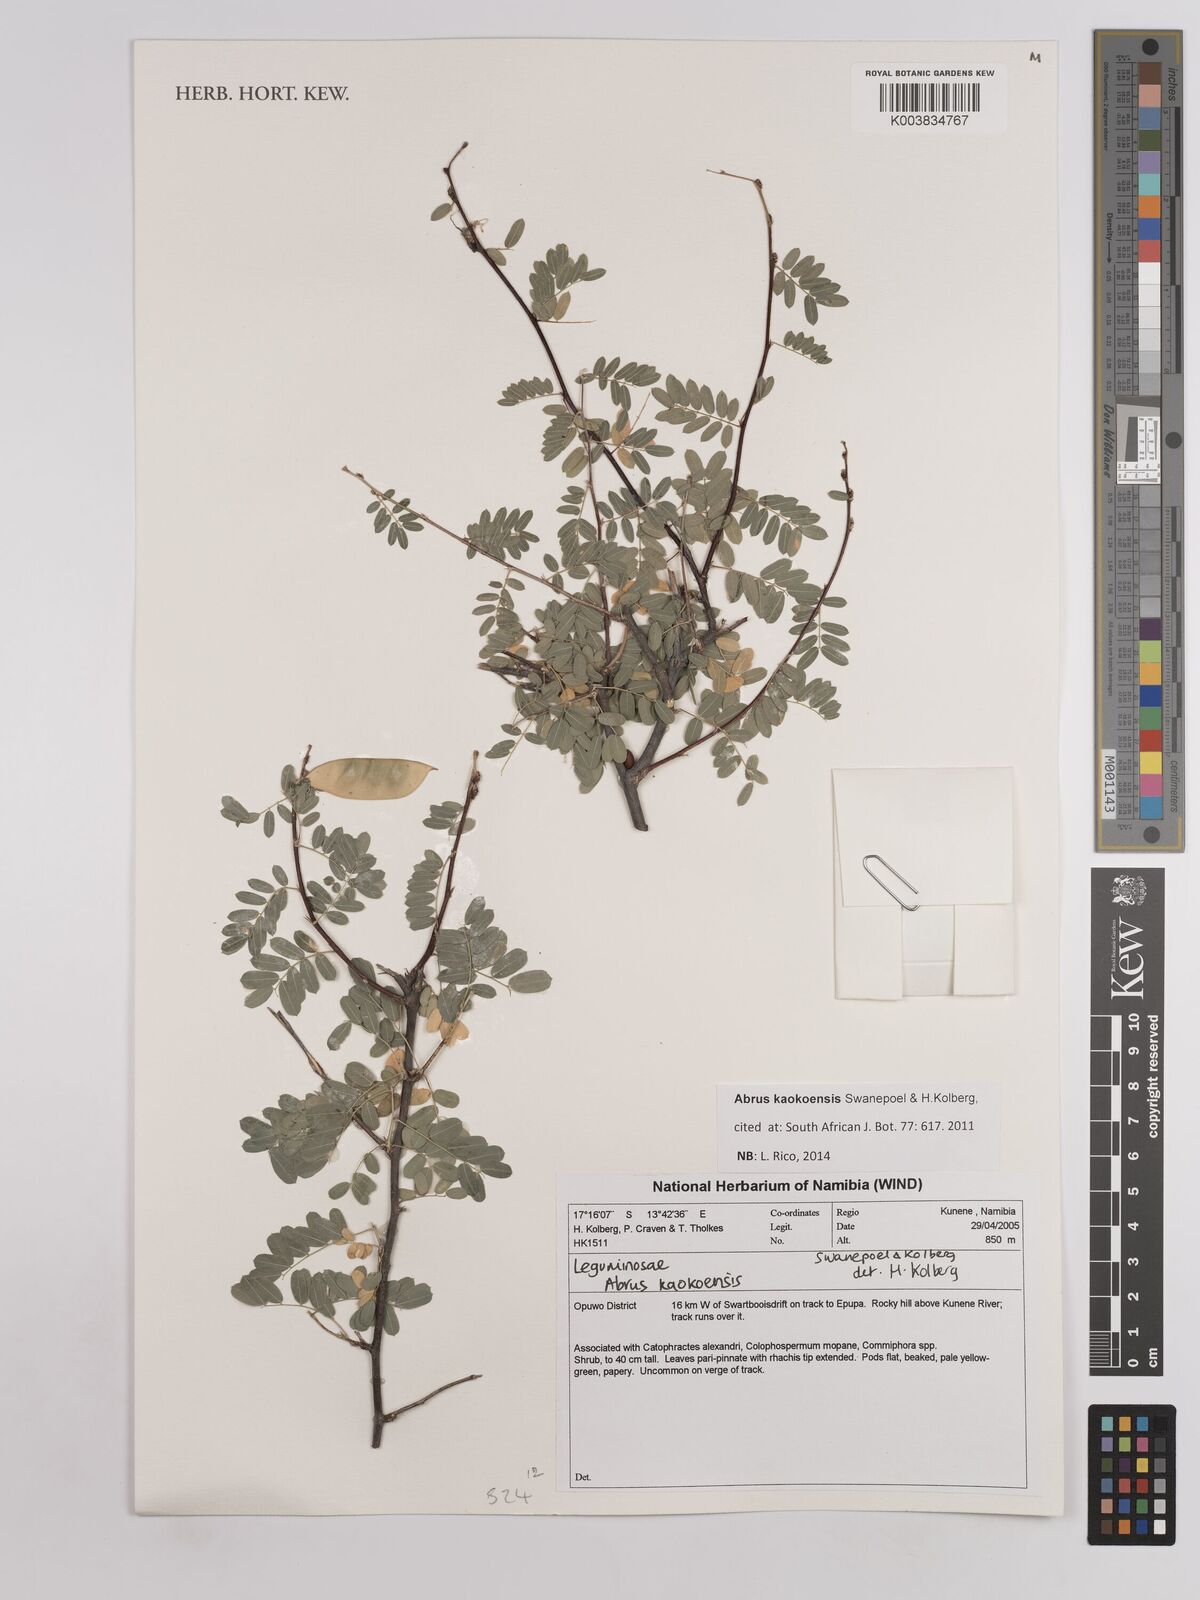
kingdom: Plantae
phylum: Tracheophyta
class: Magnoliopsida
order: Fabales
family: Fabaceae
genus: Abrus
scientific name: Abrus kaokoensis
